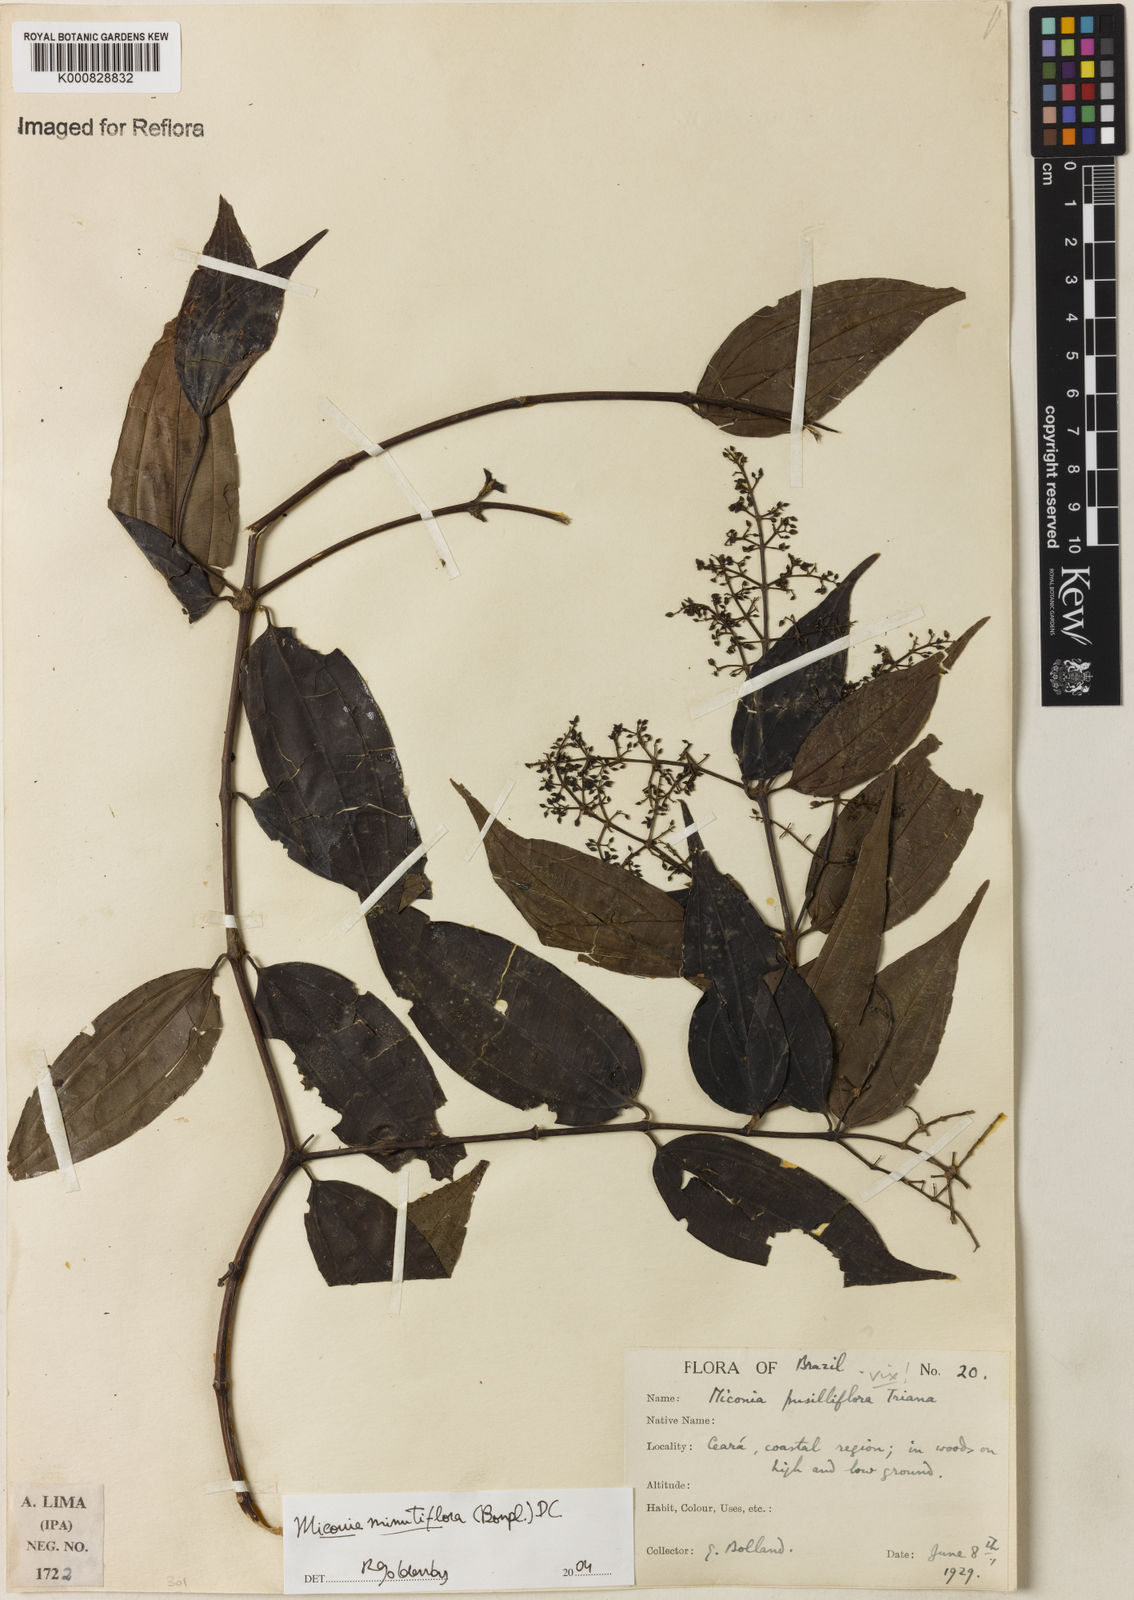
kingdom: Plantae
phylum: Tracheophyta
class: Magnoliopsida
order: Myrtales
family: Melastomataceae
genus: Miconia
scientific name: Miconia minutiflora
